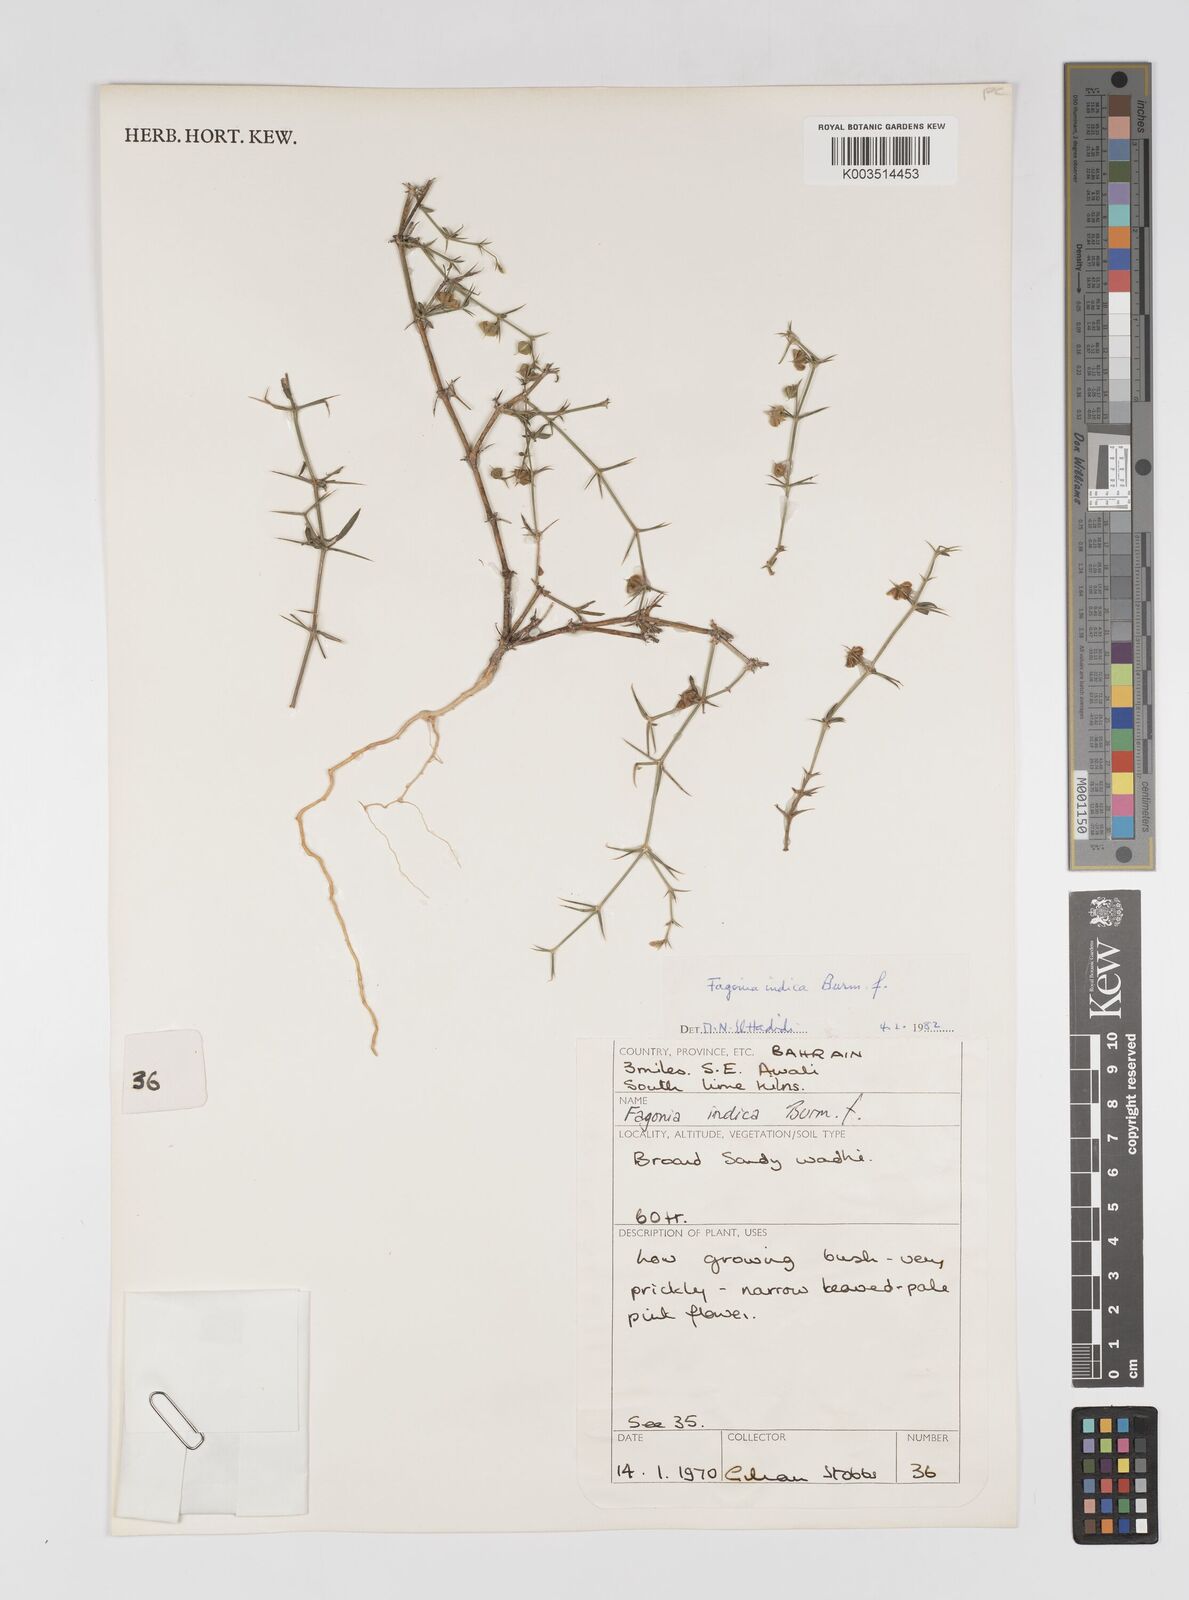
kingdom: Plantae
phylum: Tracheophyta
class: Magnoliopsida
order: Zygophyllales
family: Zygophyllaceae
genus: Fagonia
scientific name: Fagonia indica
